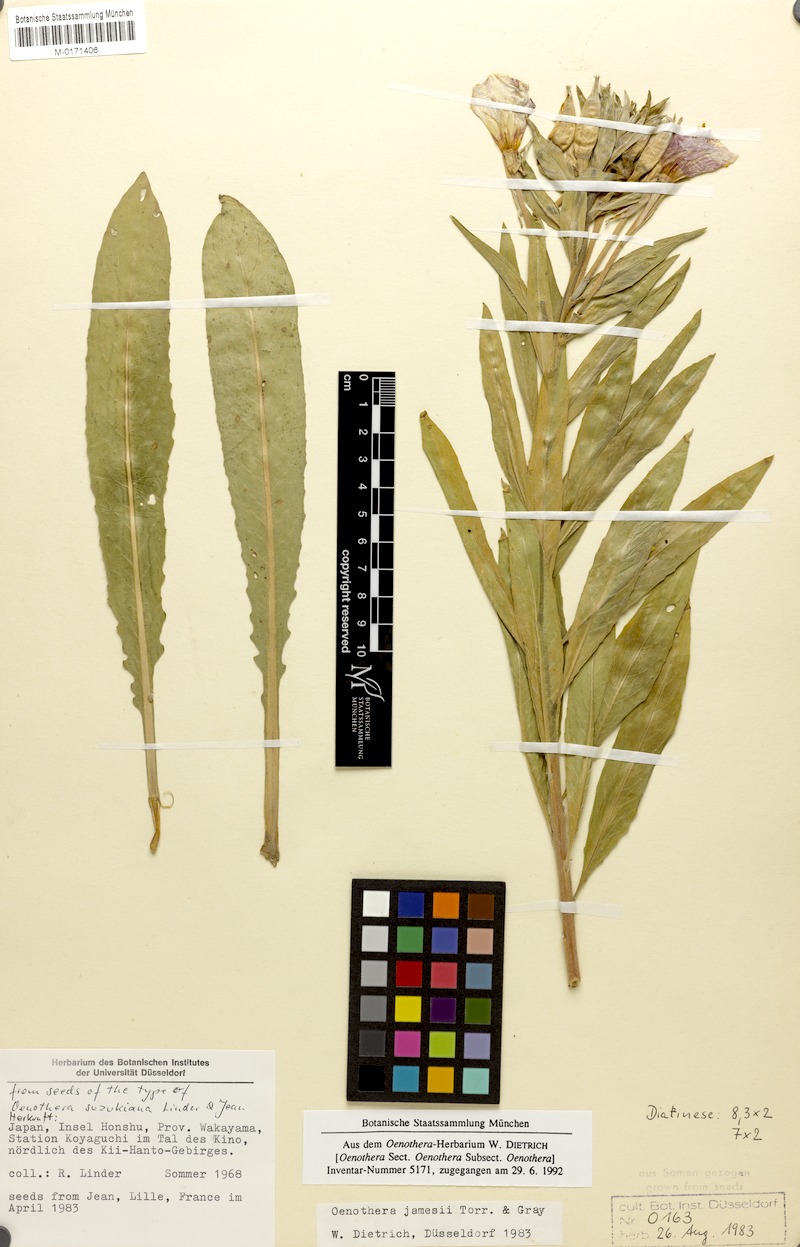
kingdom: Plantae
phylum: Tracheophyta
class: Magnoliopsida
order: Myrtales
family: Onagraceae
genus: Oenothera
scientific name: Oenothera jamesii
